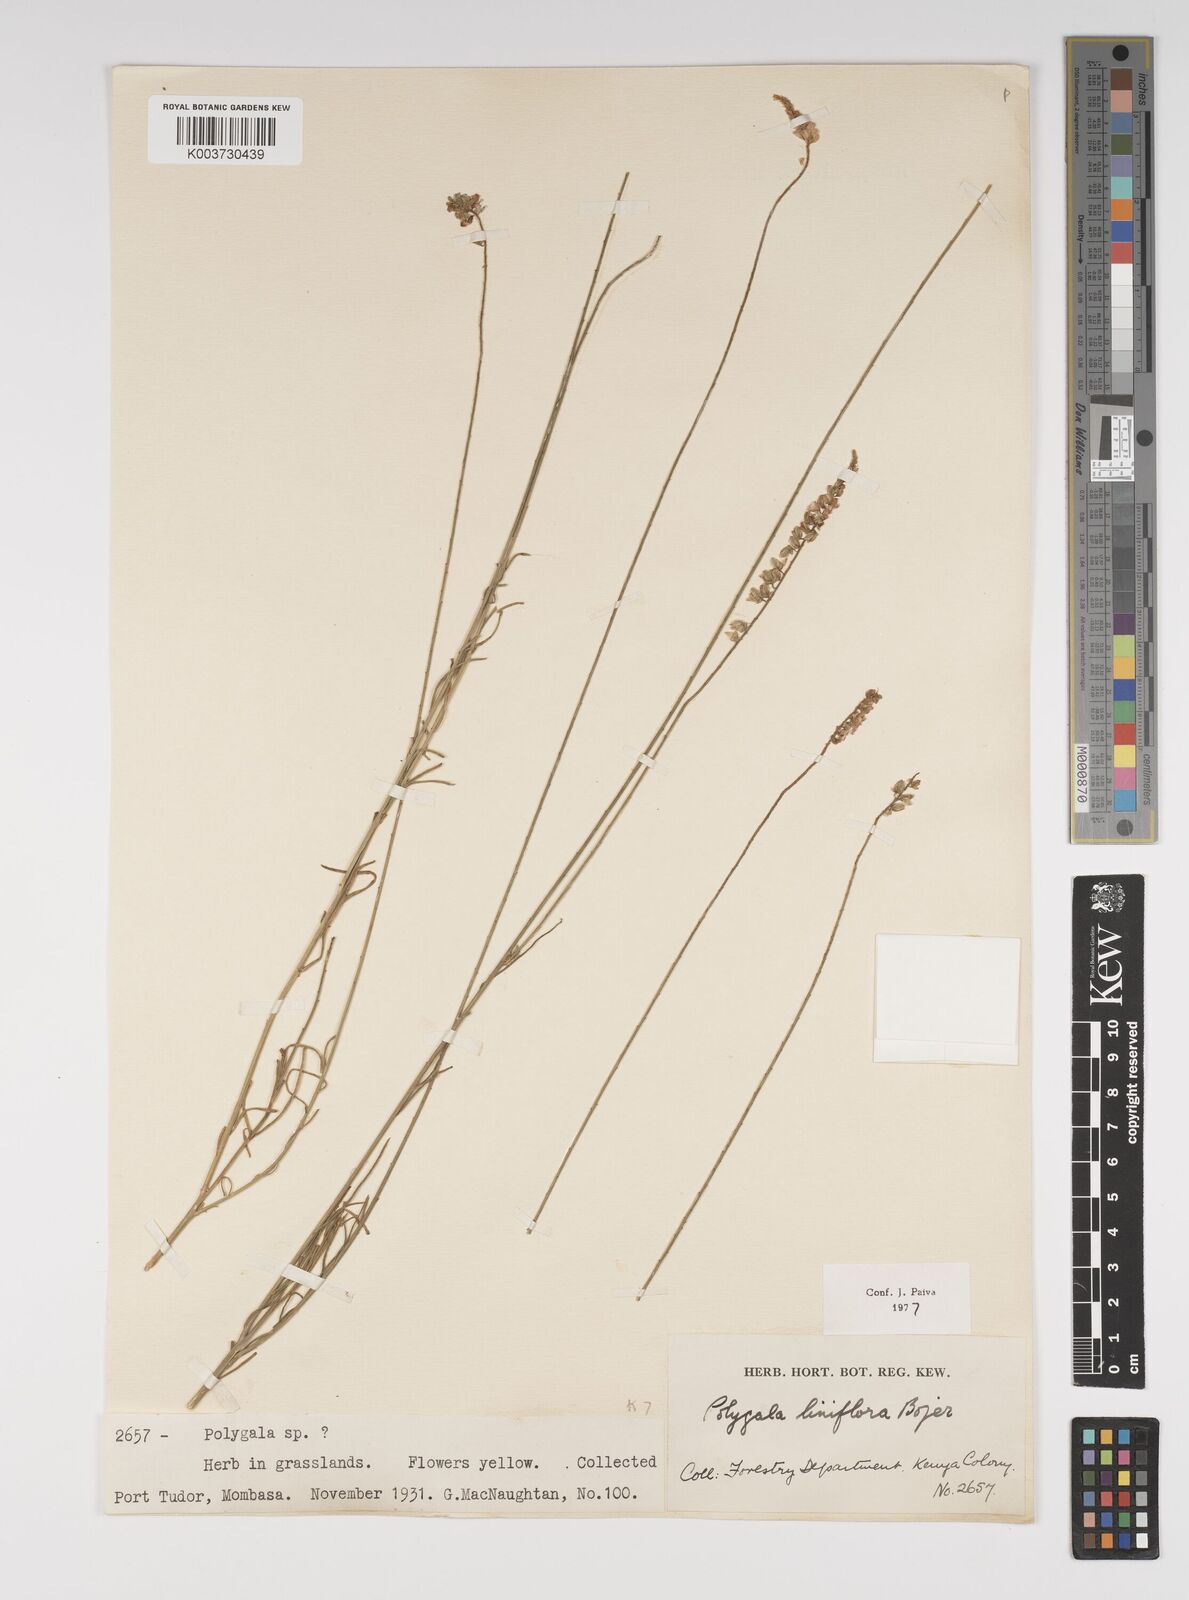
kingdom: Plantae
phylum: Tracheophyta
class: Magnoliopsida
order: Fabales
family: Polygalaceae
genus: Polygala
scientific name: Polygala conosperma
